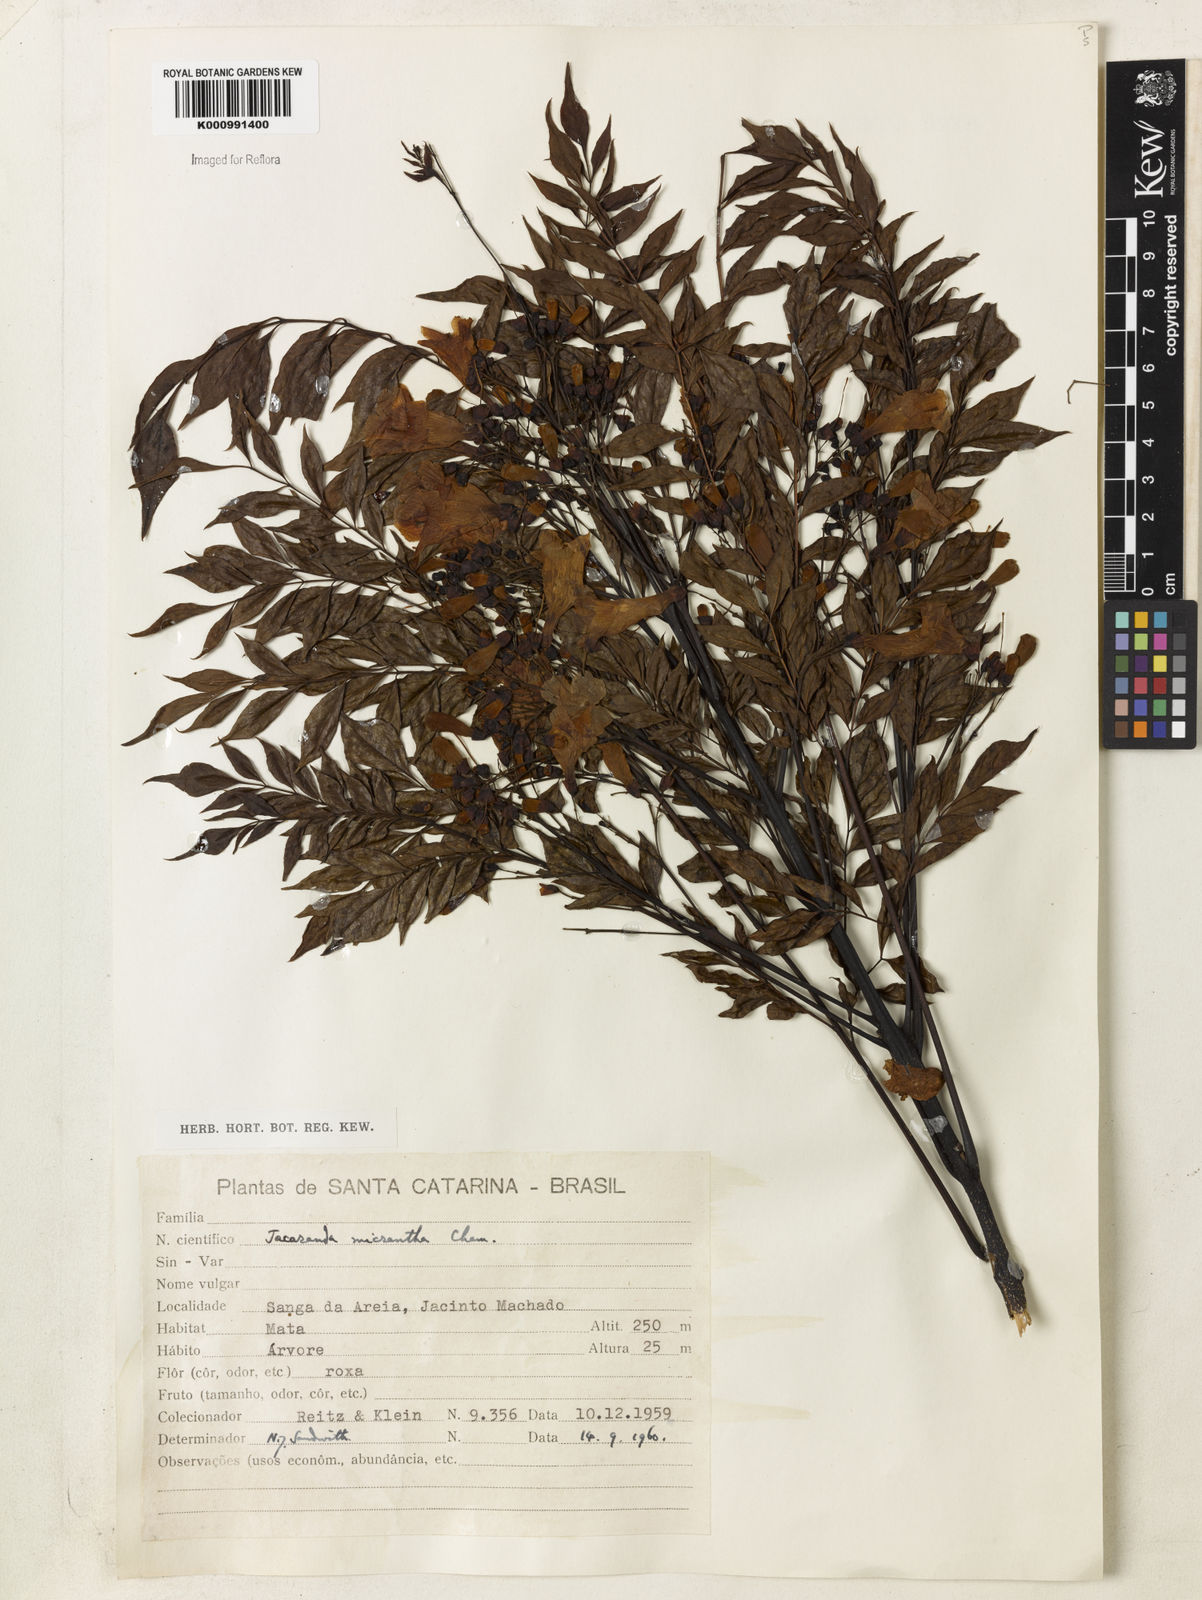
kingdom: Plantae
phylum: Tracheophyta
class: Magnoliopsida
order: Lamiales
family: Bignoniaceae
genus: Jacaranda
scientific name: Jacaranda micrantha
